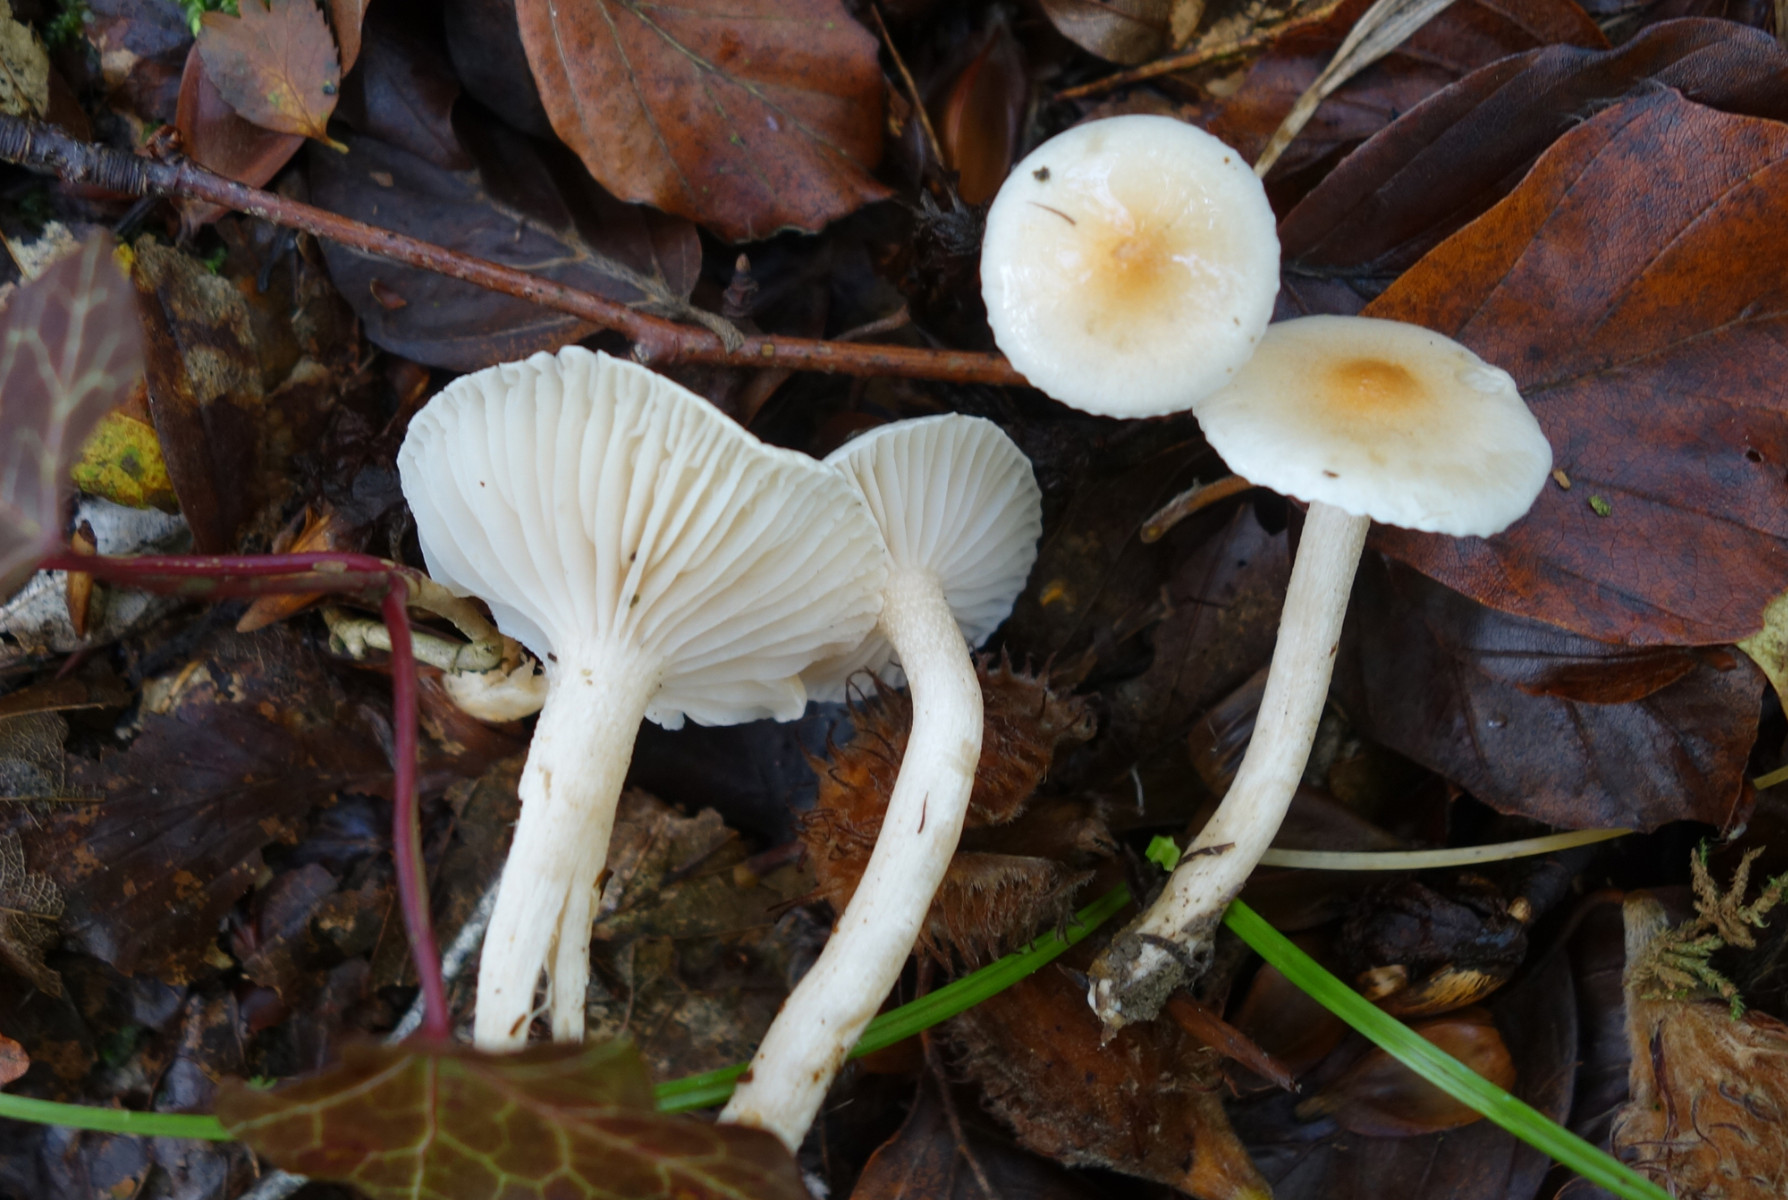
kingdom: Fungi
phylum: Basidiomycota
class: Agaricomycetes
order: Agaricales
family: Hygrophoraceae
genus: Hygrophorus
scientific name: Hygrophorus unicolor
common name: orangeøjet sneglehat
